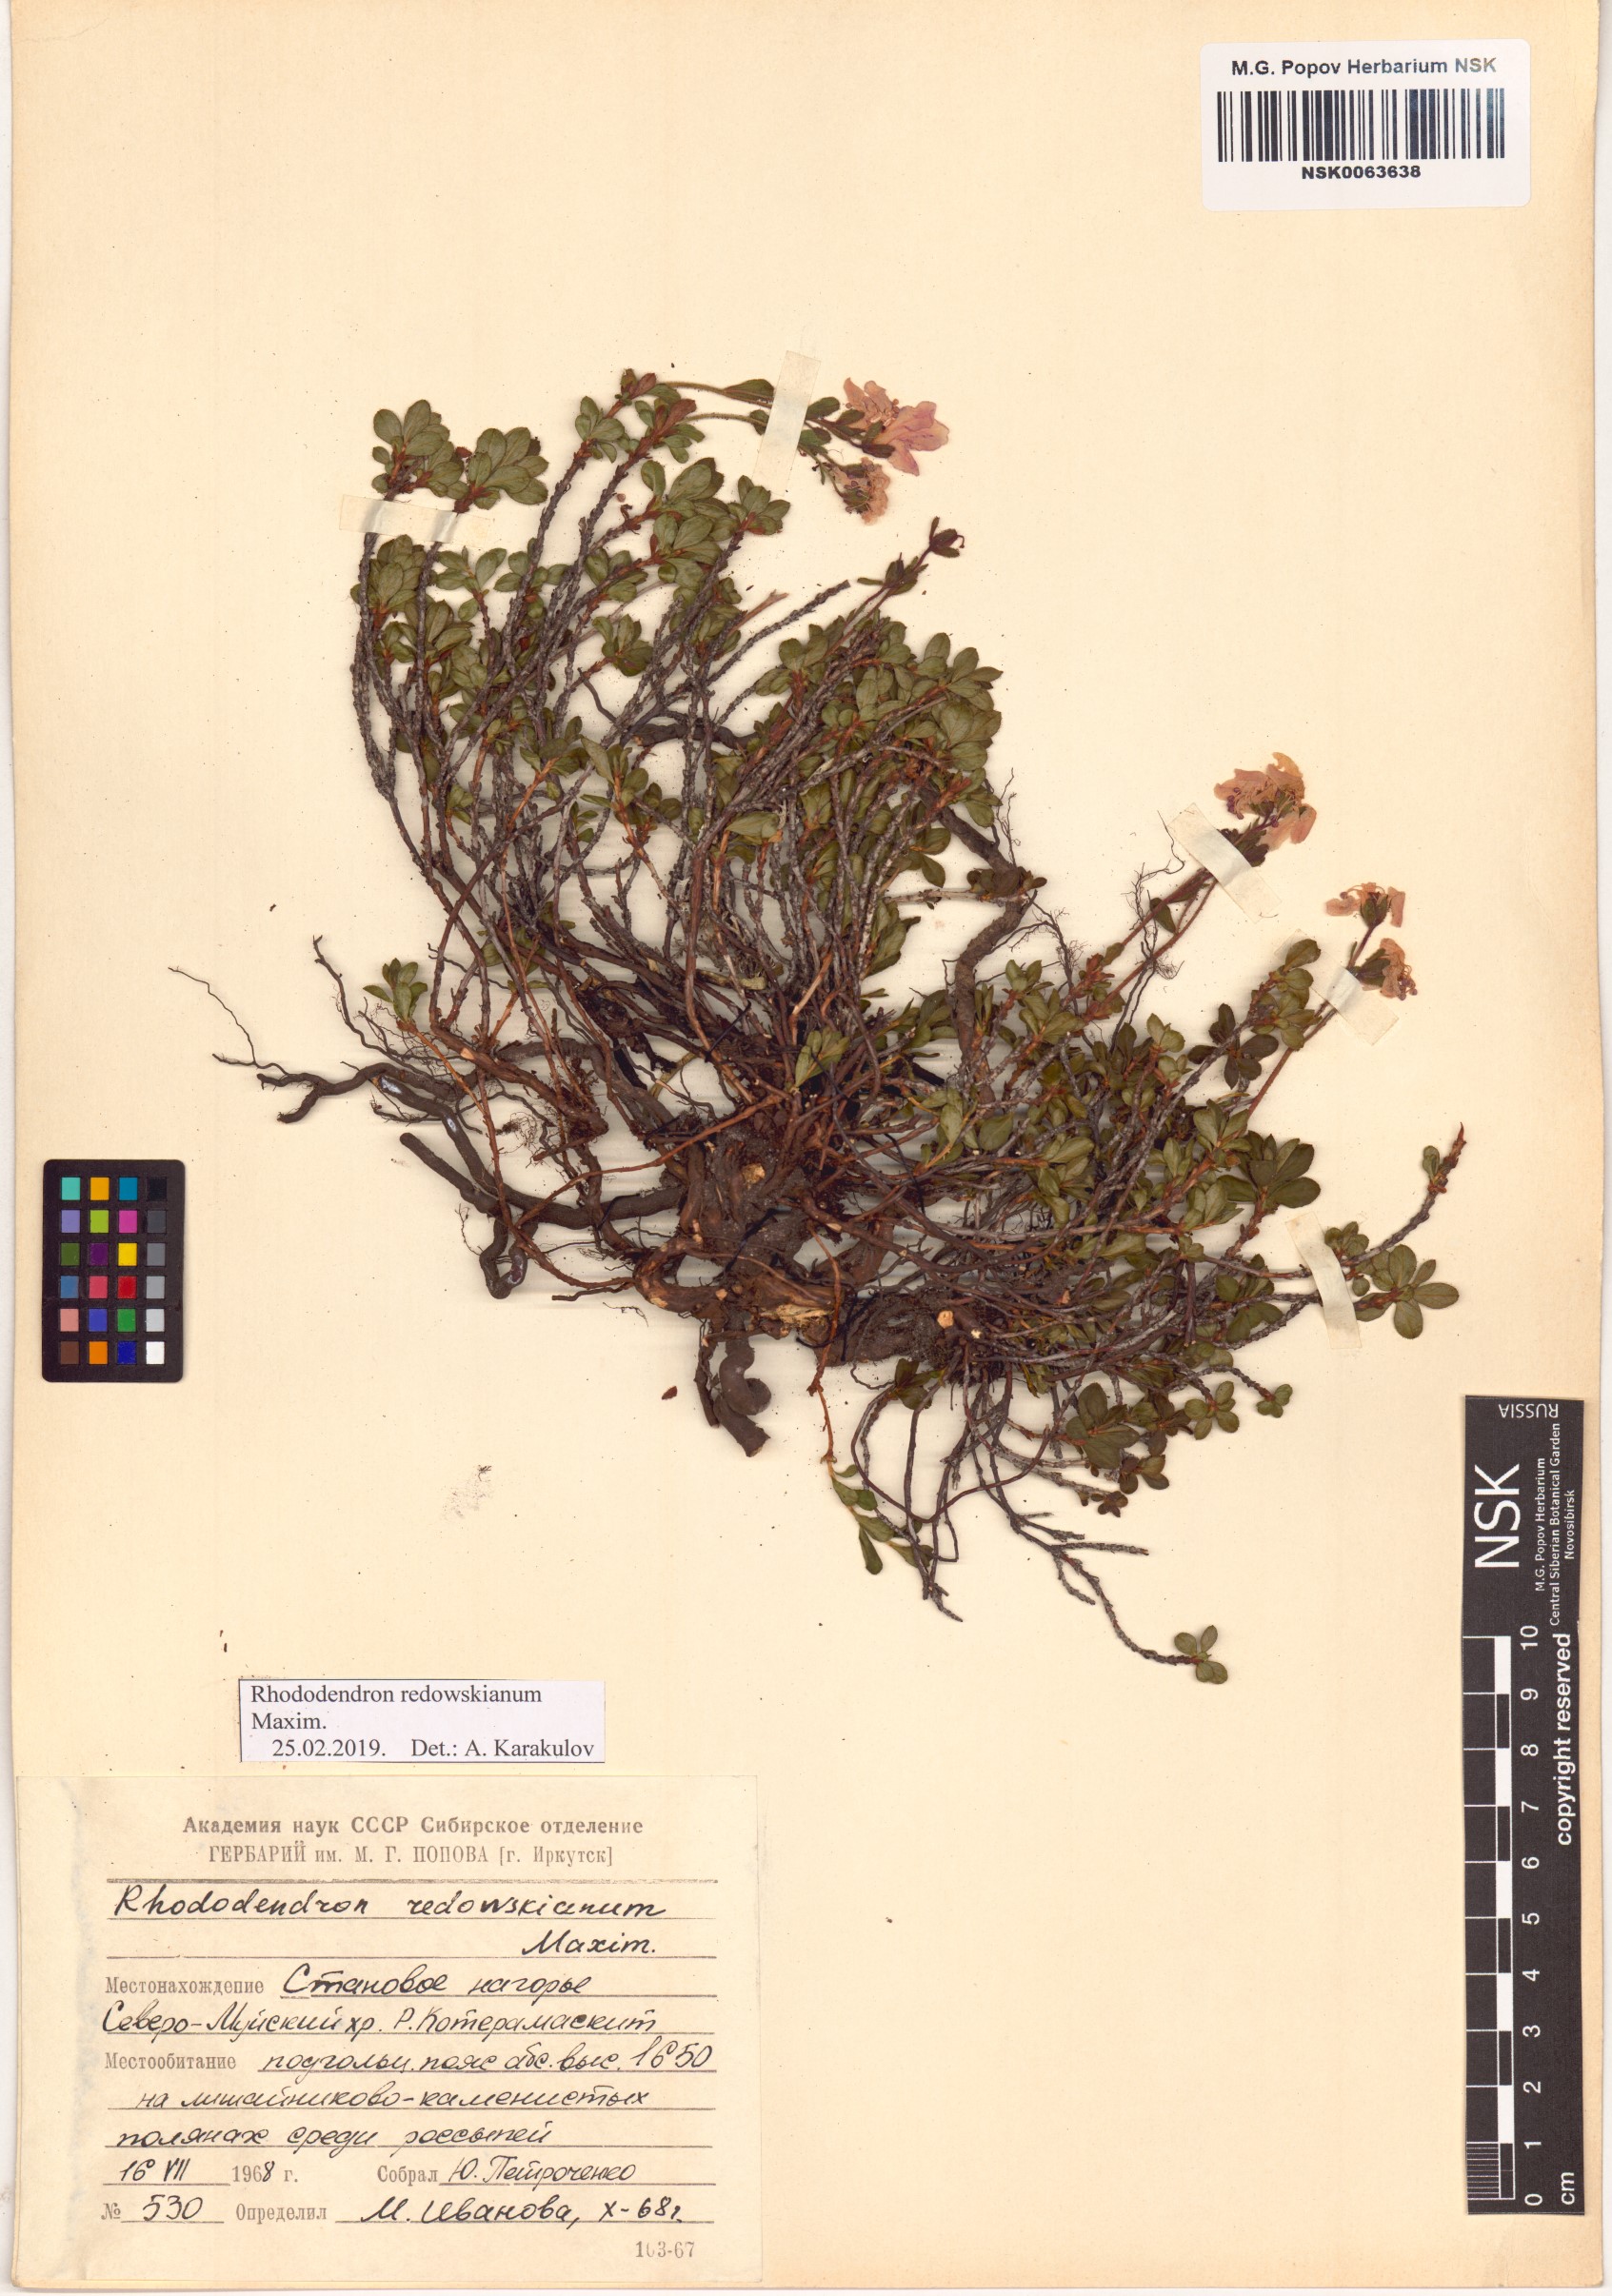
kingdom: Plantae
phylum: Tracheophyta
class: Magnoliopsida
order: Ericales
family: Ericaceae
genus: Rhododendron
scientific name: Rhododendron redowskianum
